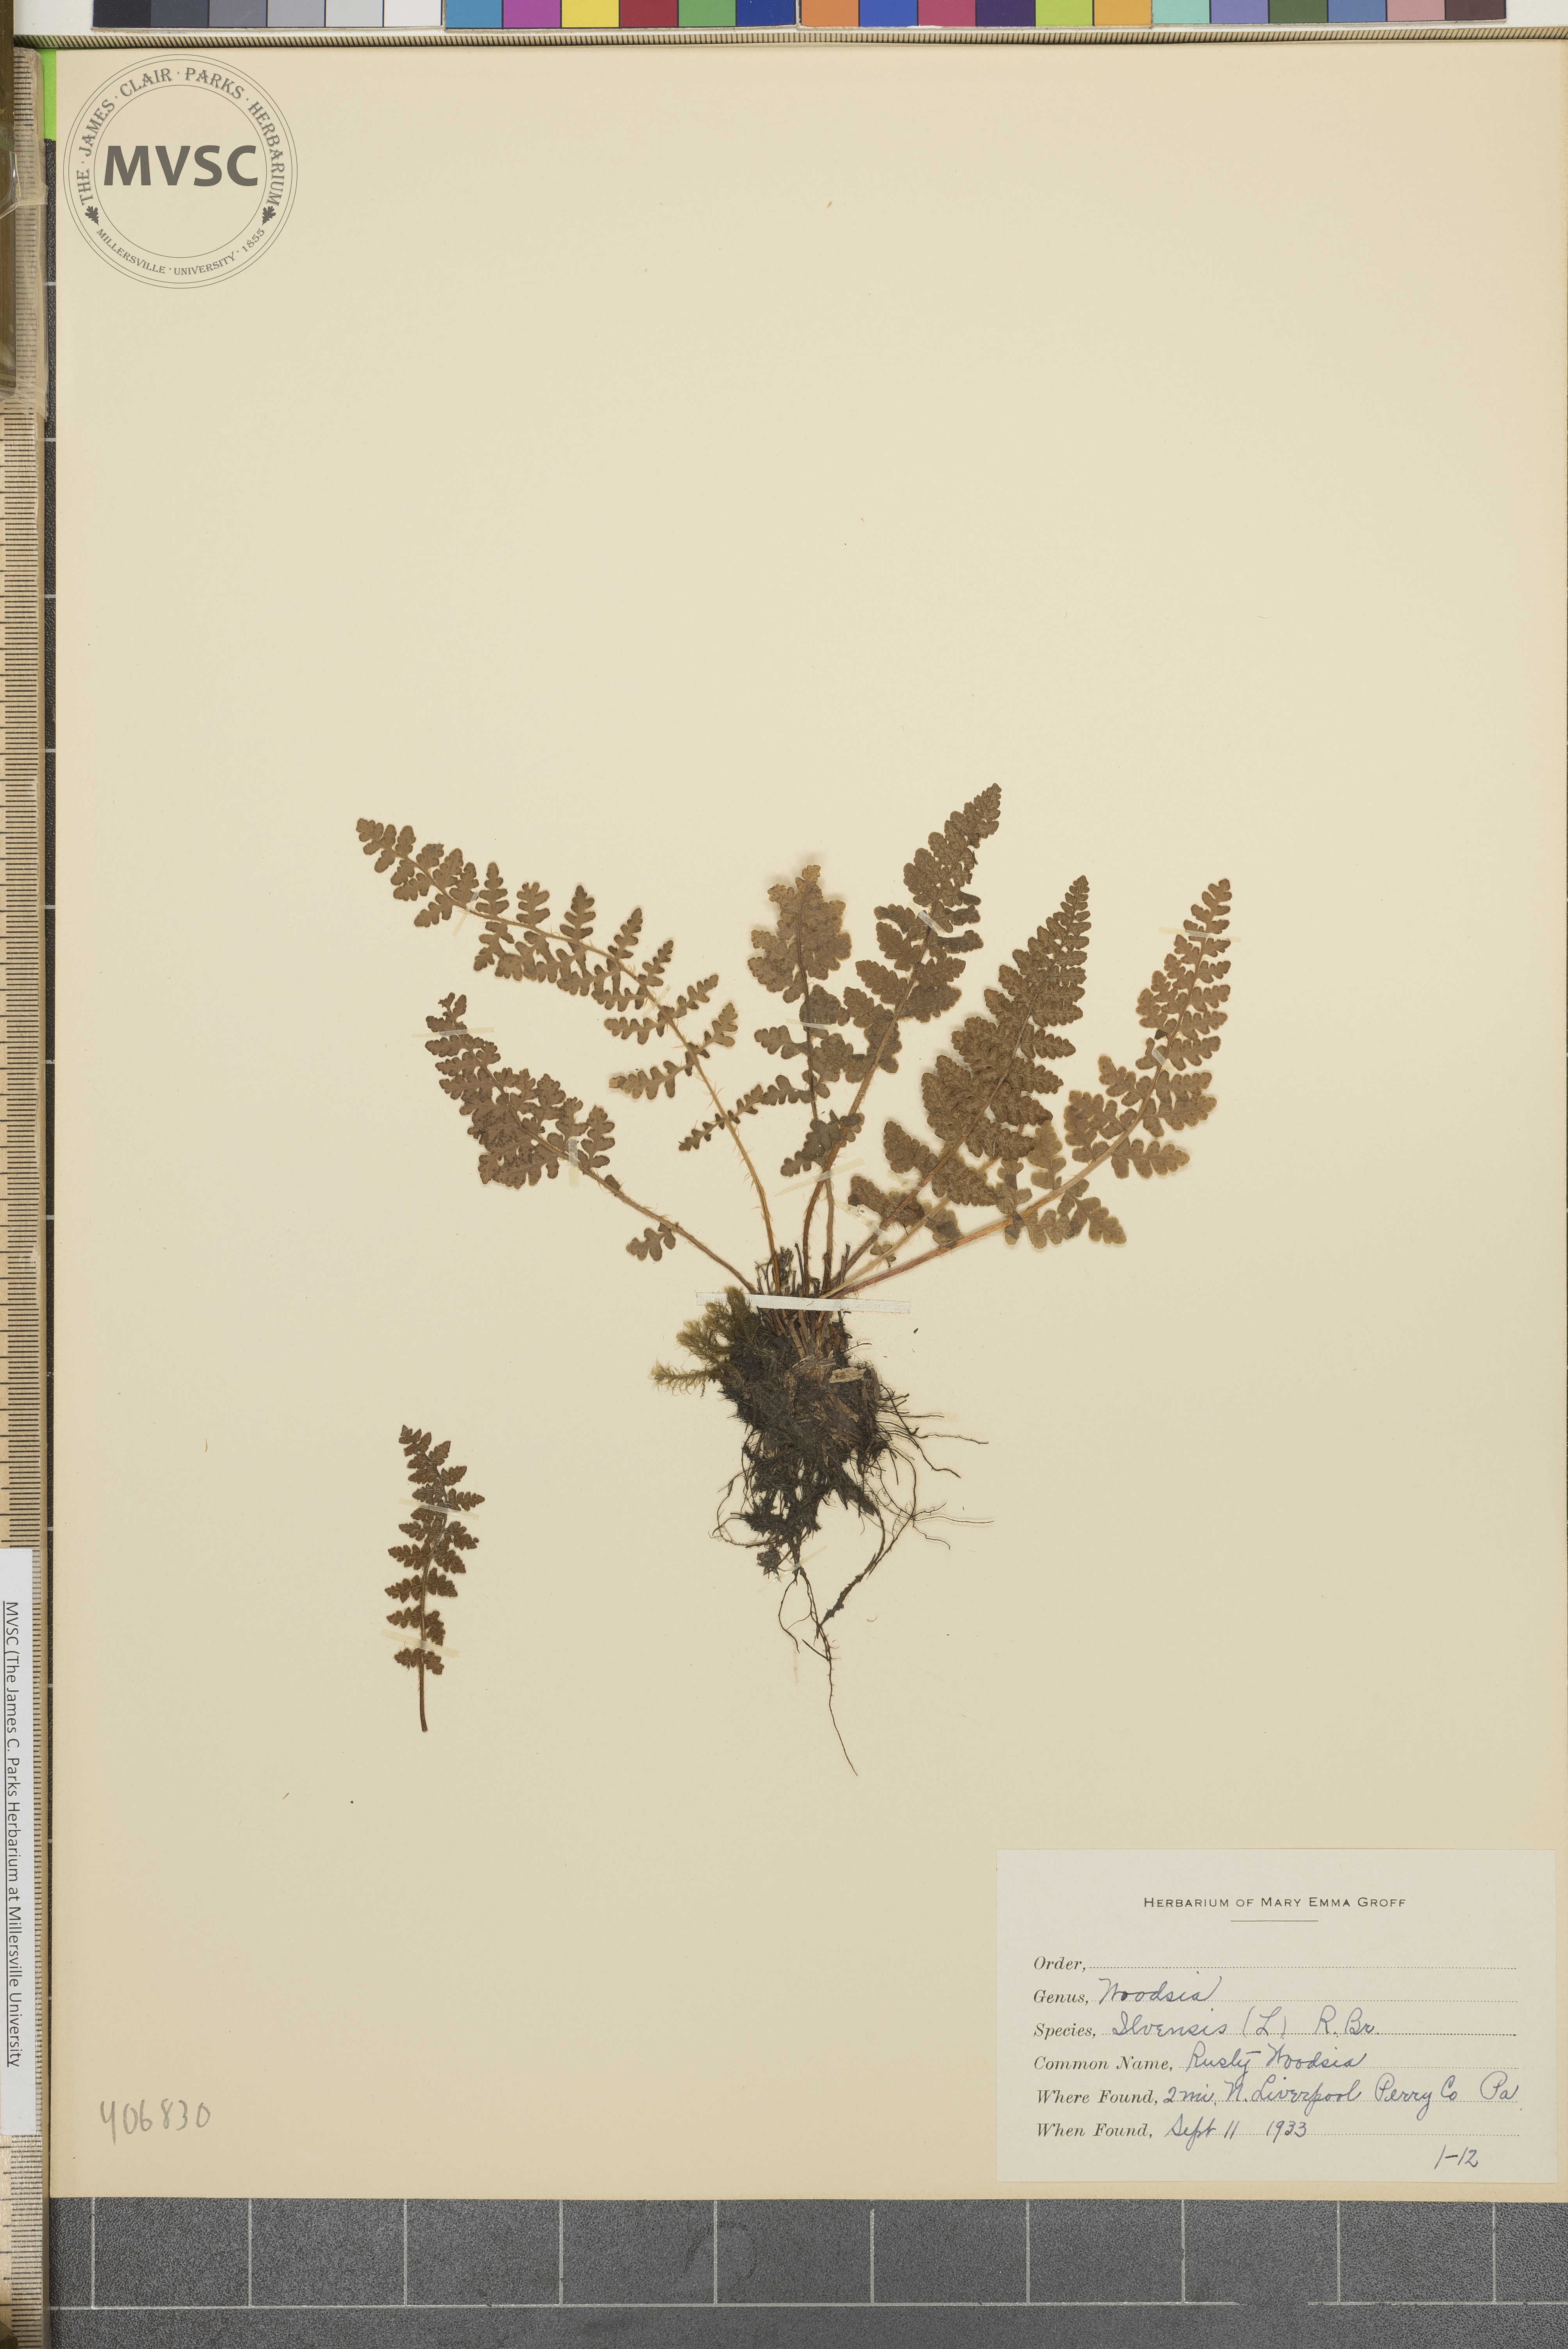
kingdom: Plantae
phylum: Tracheophyta
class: Polypodiopsida
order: Polypodiales
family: Woodsiaceae
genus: Woodsia
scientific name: Woodsia ilvensis
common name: Fragrant woodsia
